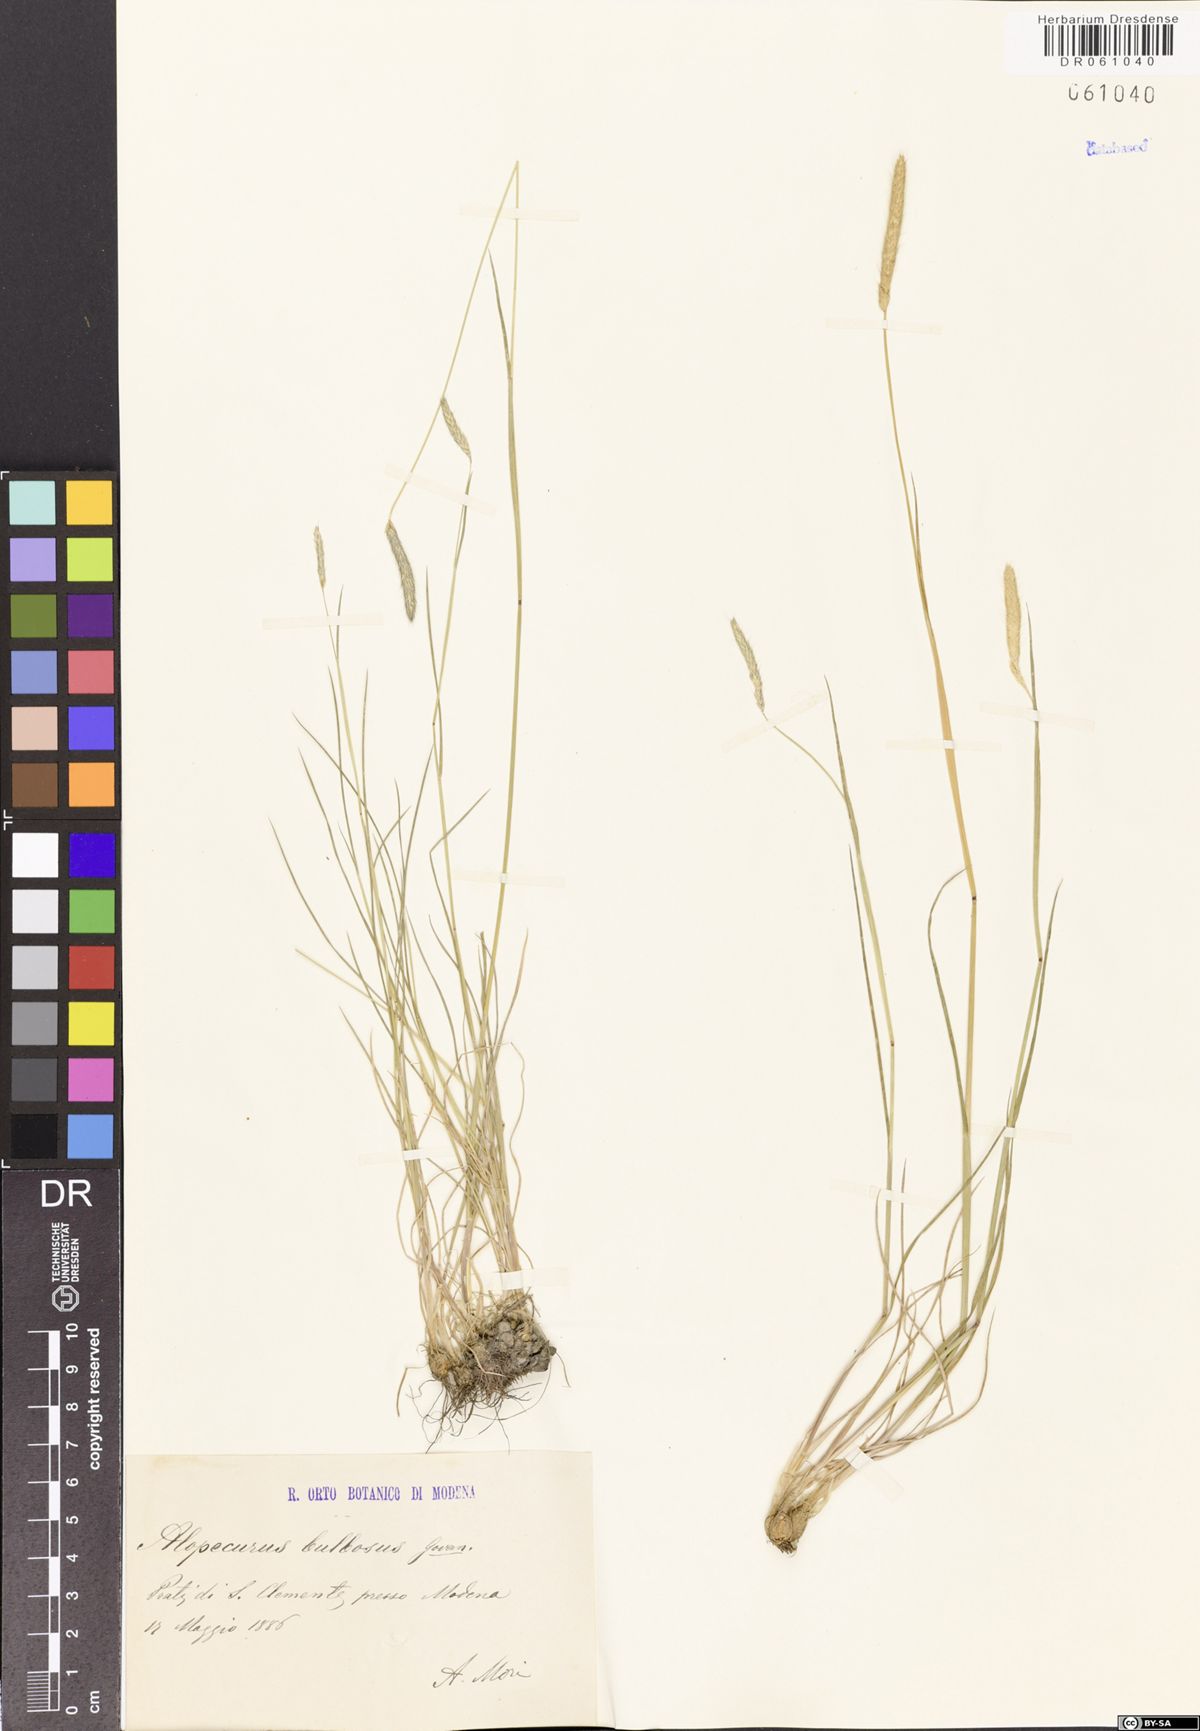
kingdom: Plantae
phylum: Tracheophyta
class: Liliopsida
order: Poales
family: Poaceae
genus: Alopecurus
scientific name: Alopecurus bulbosus
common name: Bulbous foxtail
